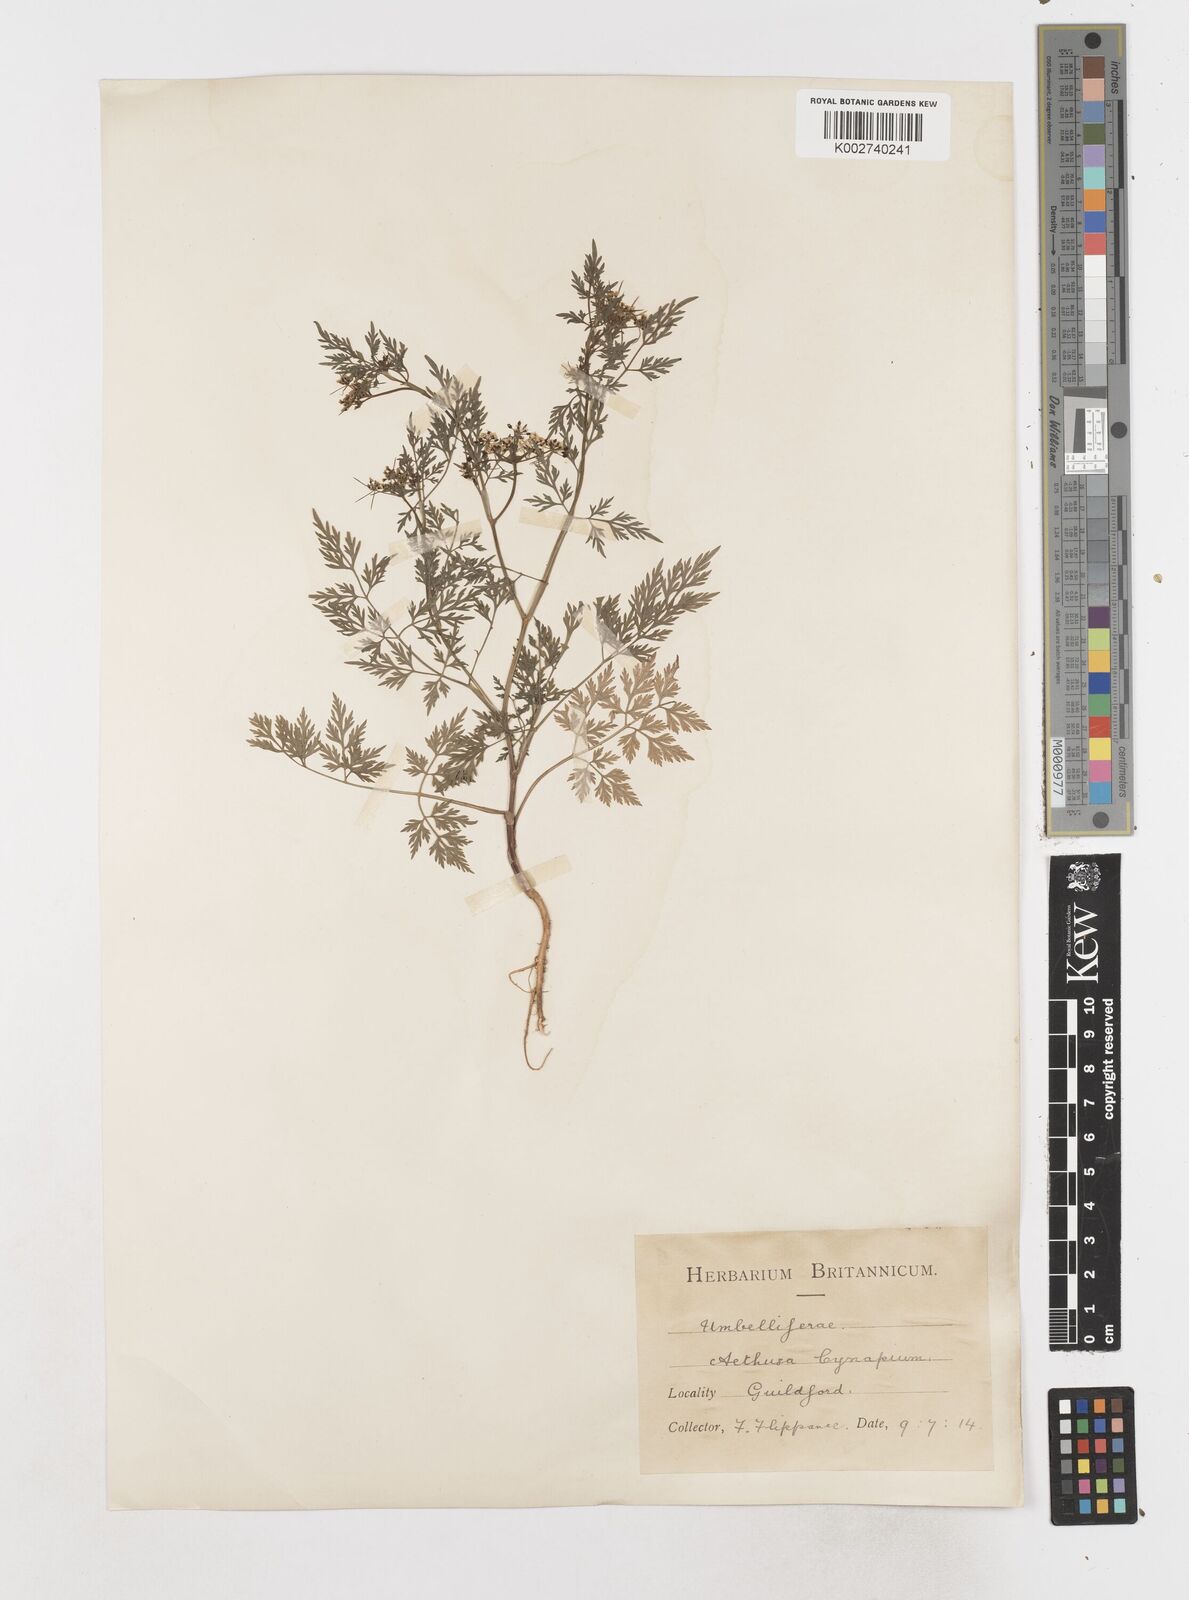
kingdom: Plantae
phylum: Tracheophyta
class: Magnoliopsida
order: Apiales
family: Apiaceae
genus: Aethusa
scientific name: Aethusa cynapium
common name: Fool's parsley
